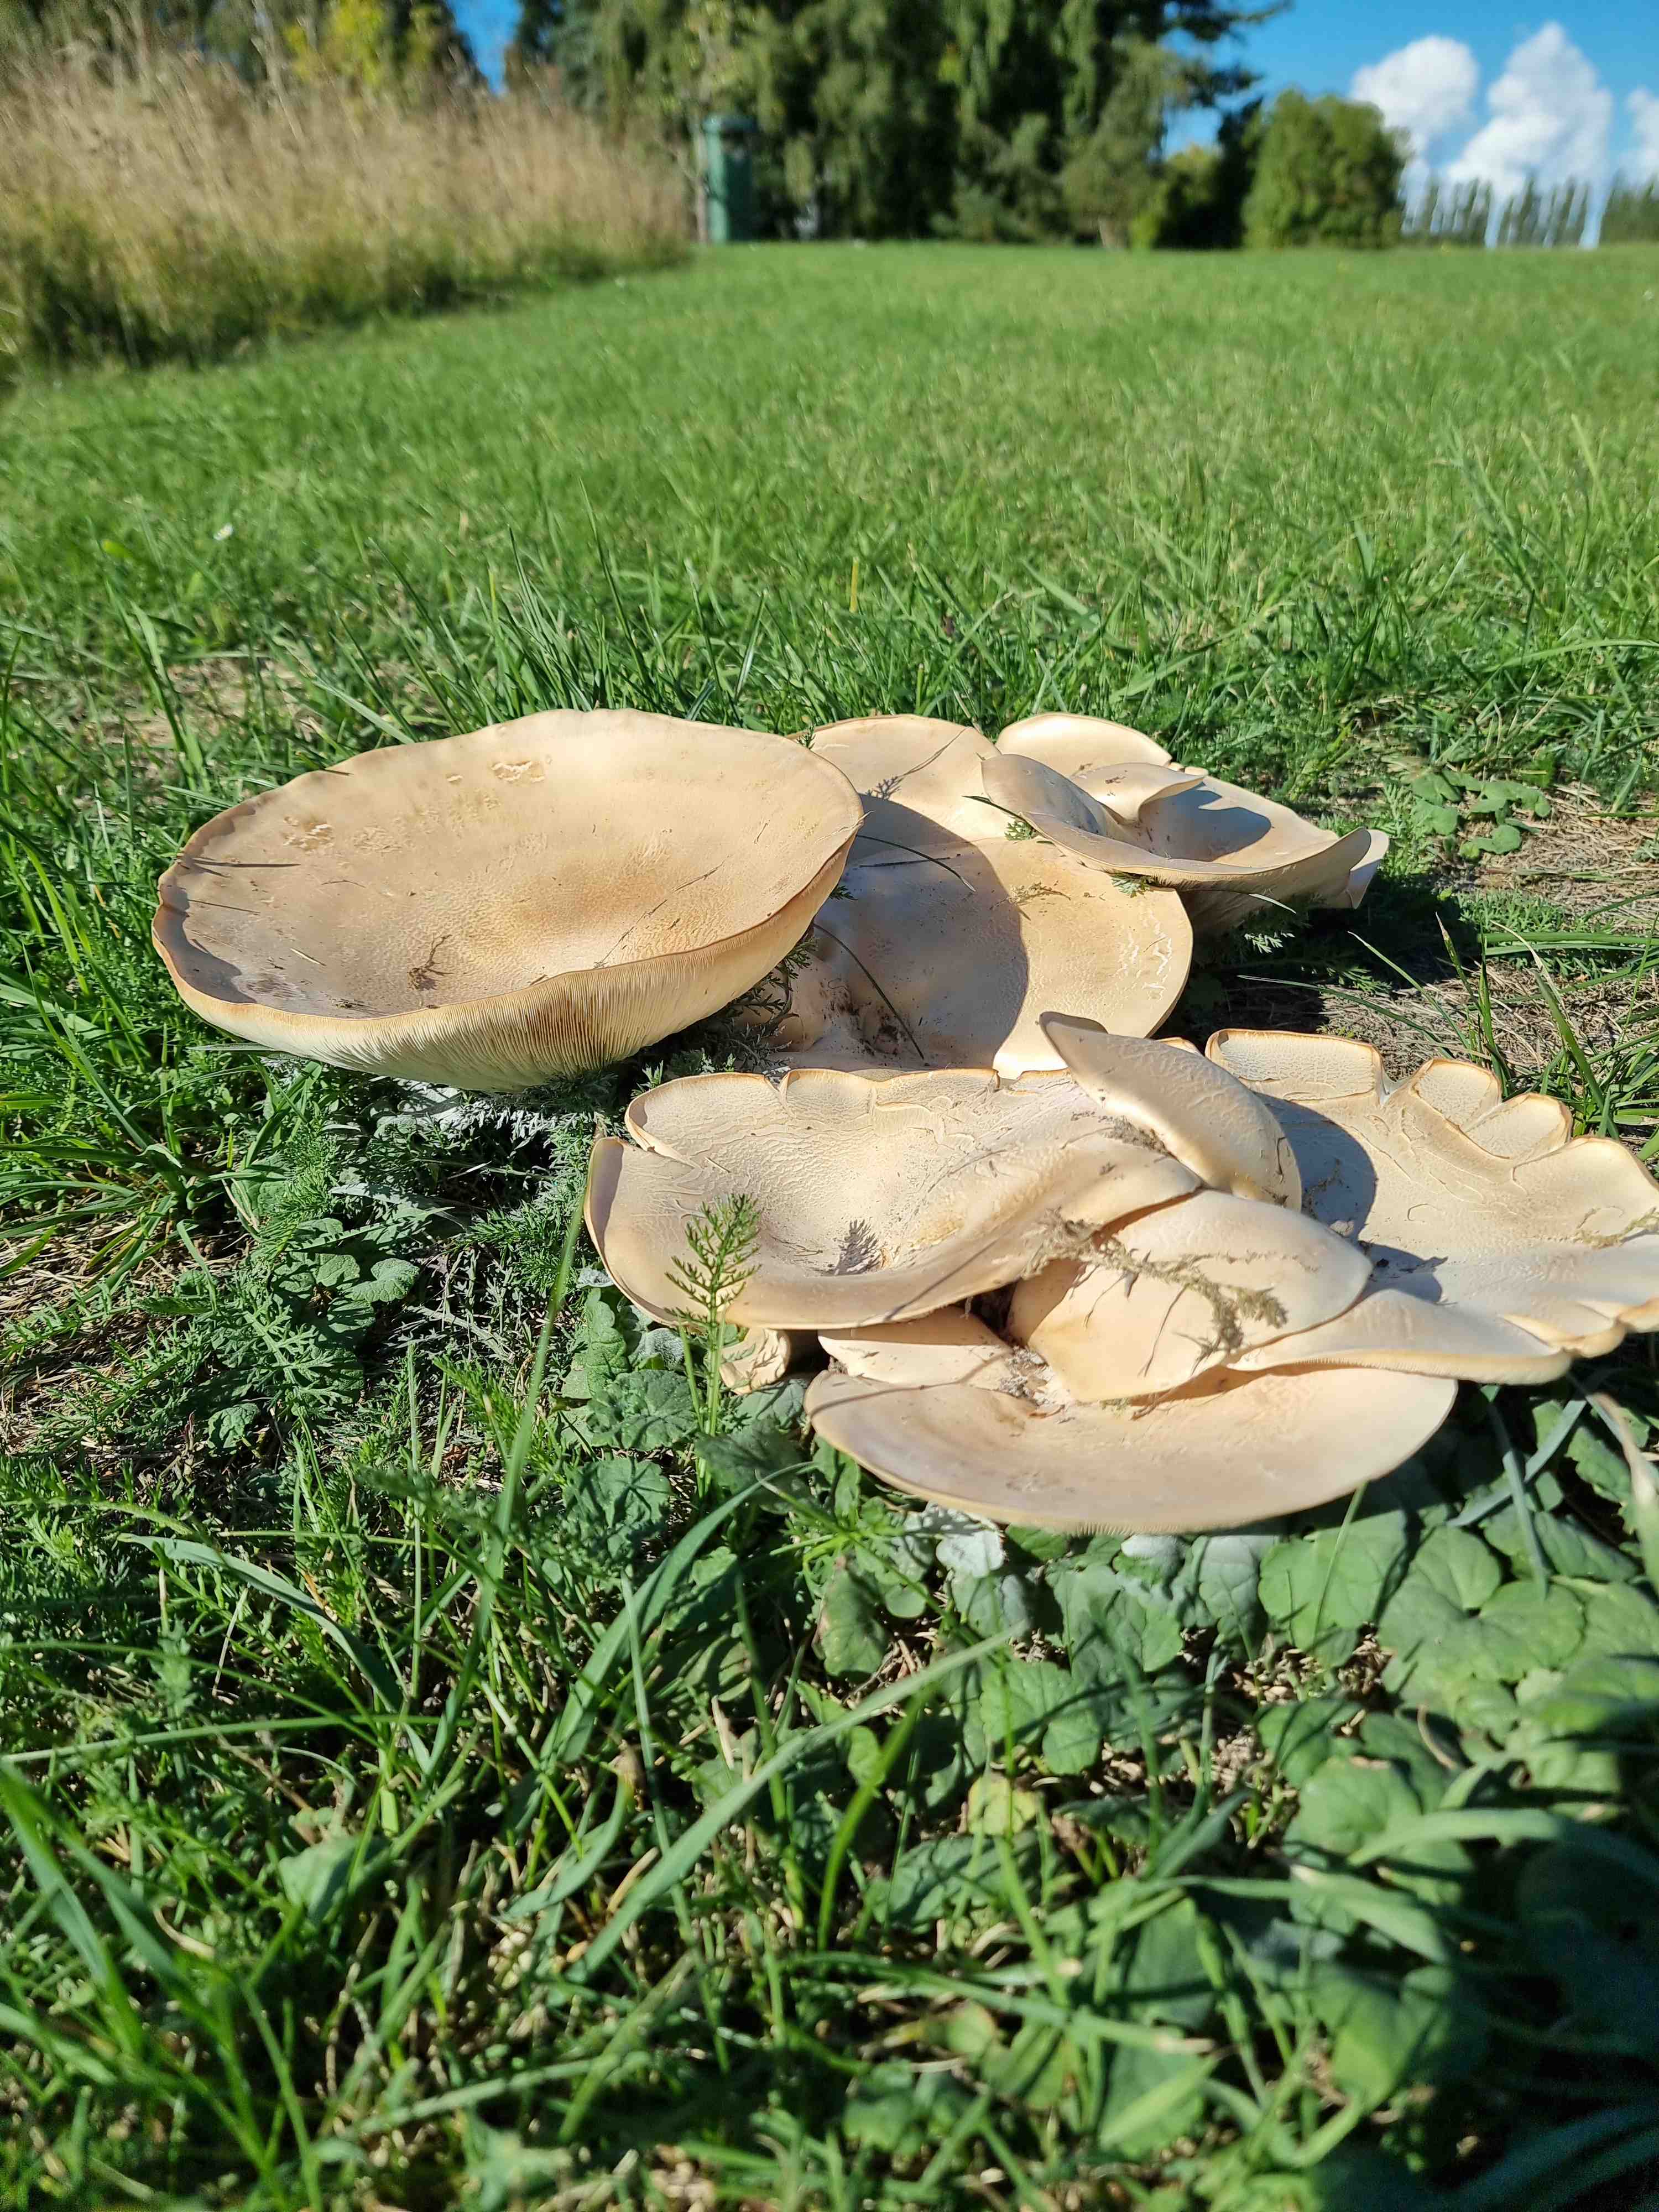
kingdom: Fungi
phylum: Basidiomycota
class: Agaricomycetes
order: Agaricales
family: Tricholomataceae
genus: Aspropaxillus
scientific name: Aspropaxillus giganteus
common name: kæmpe-tragtridderhat
